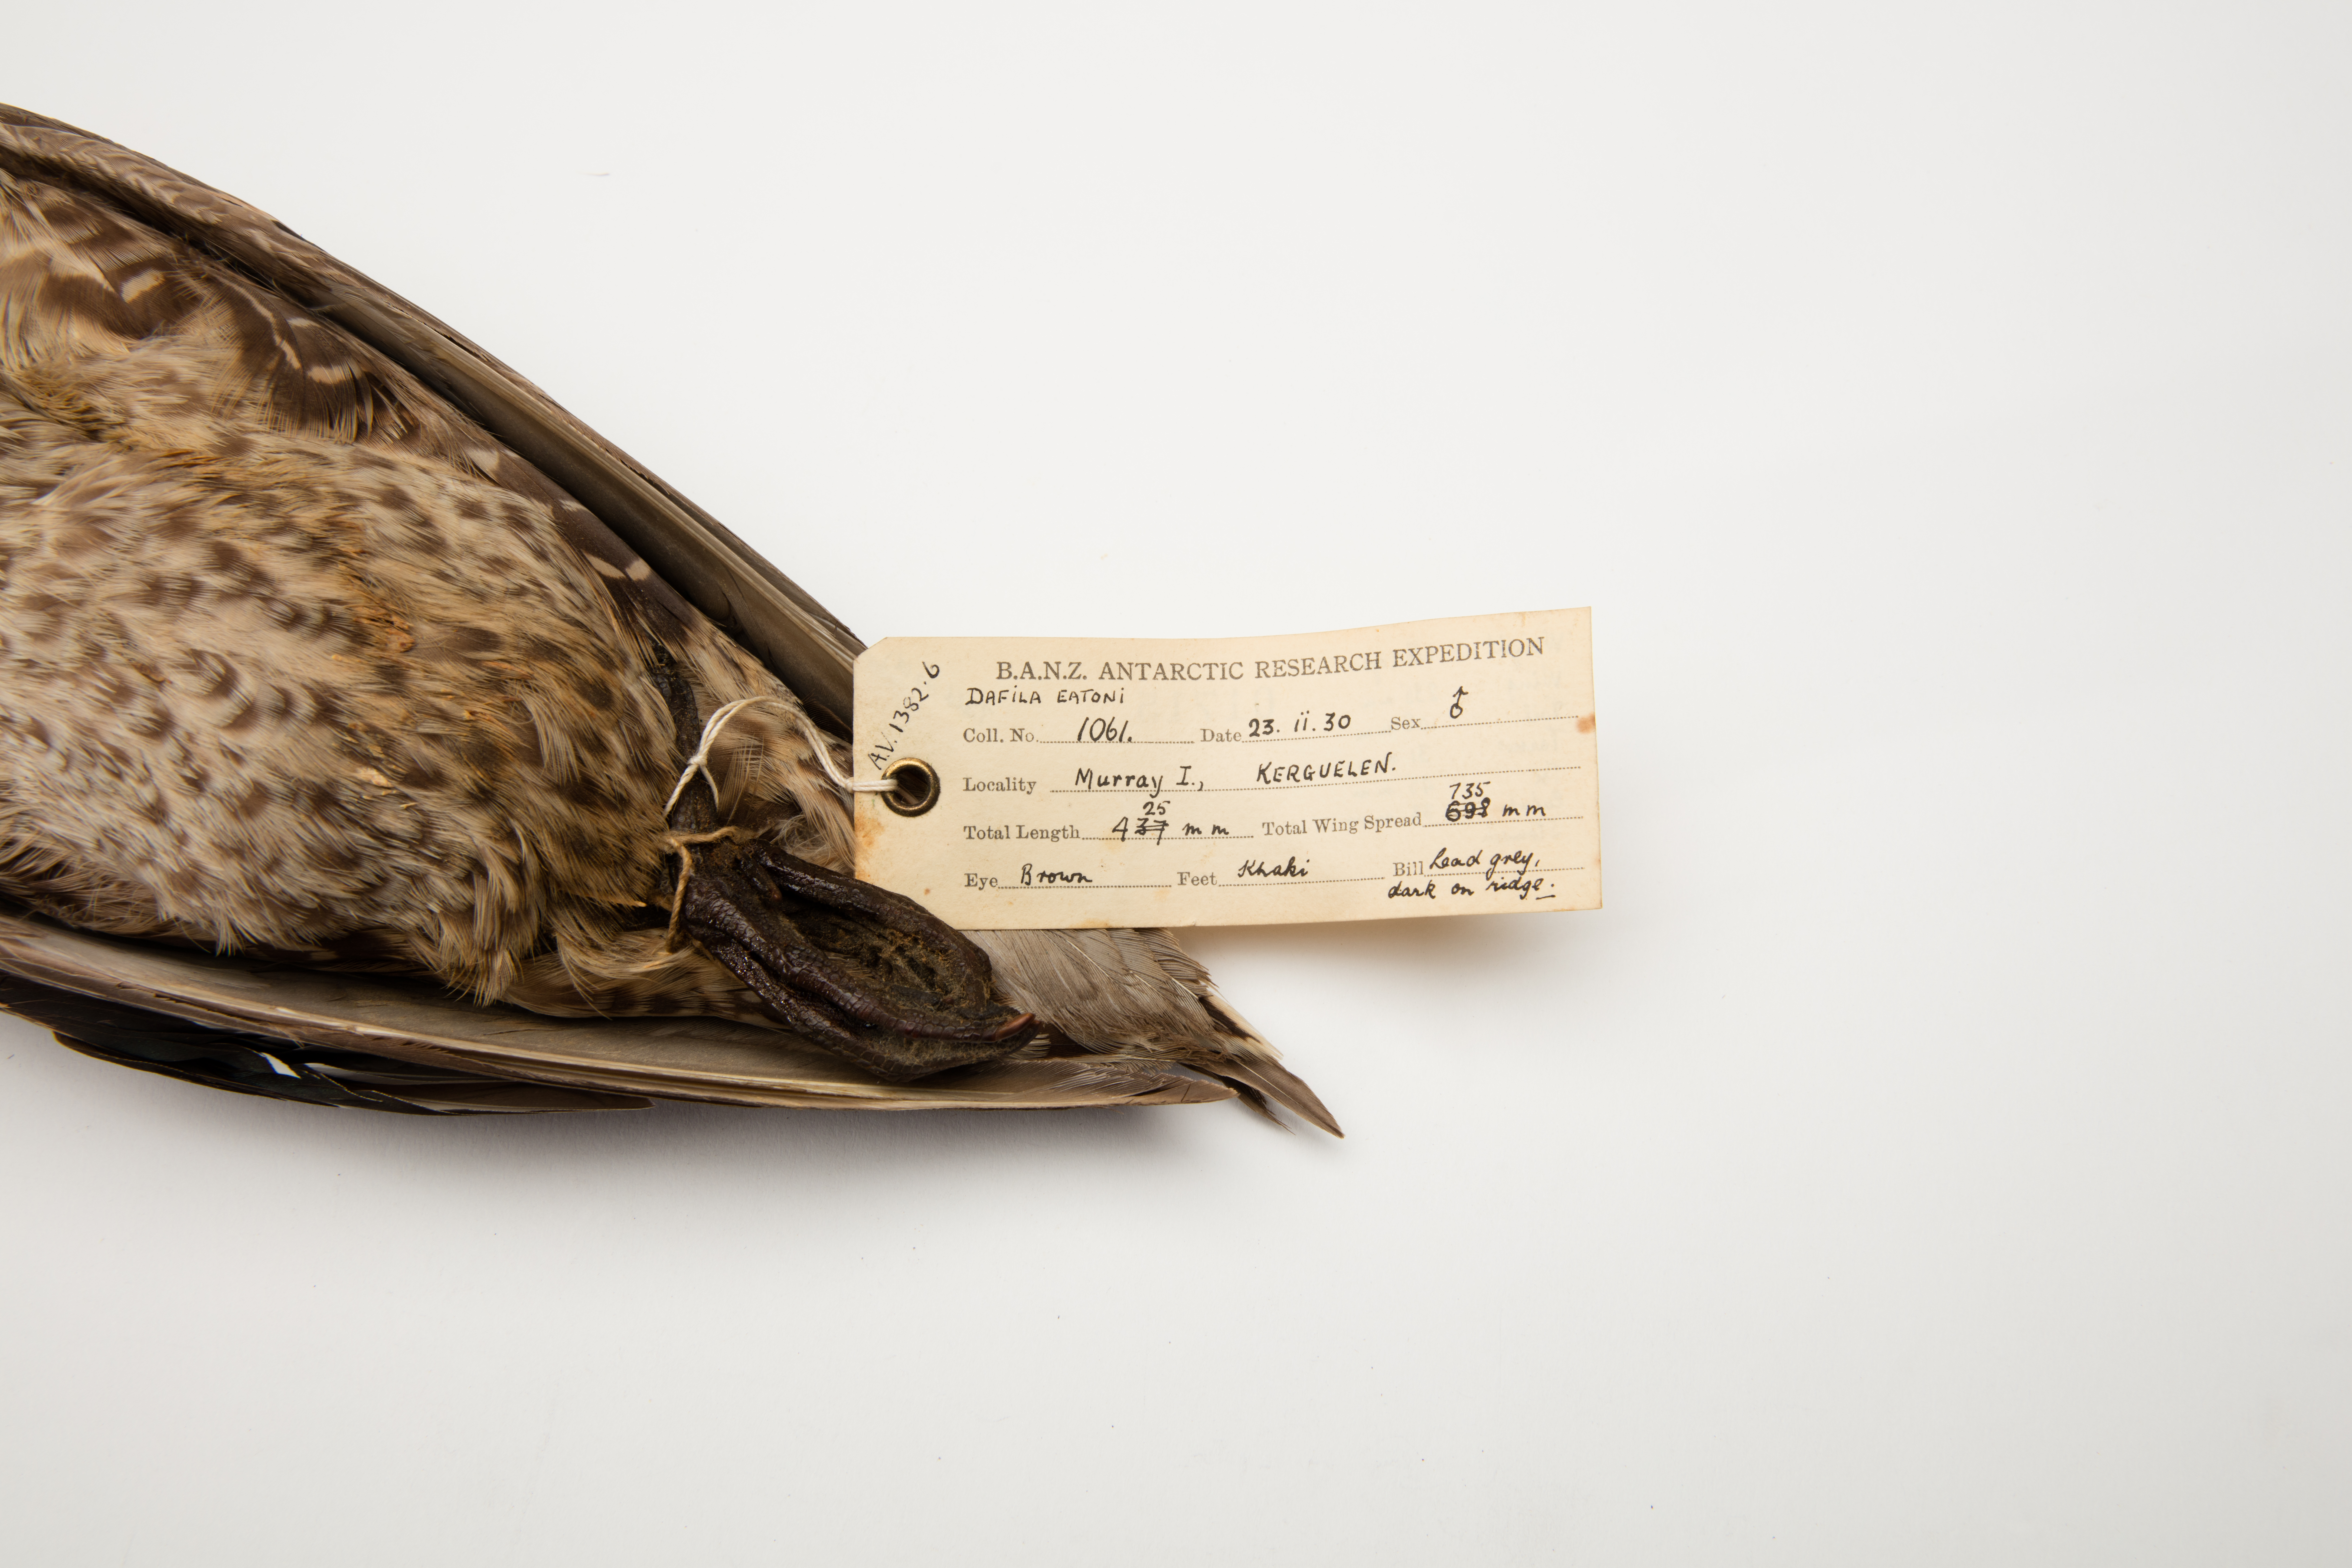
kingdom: Animalia
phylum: Chordata
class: Aves
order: Anseriformes
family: Anatidae
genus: Anas
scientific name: Anas eatoni
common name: Eaton's pintail
